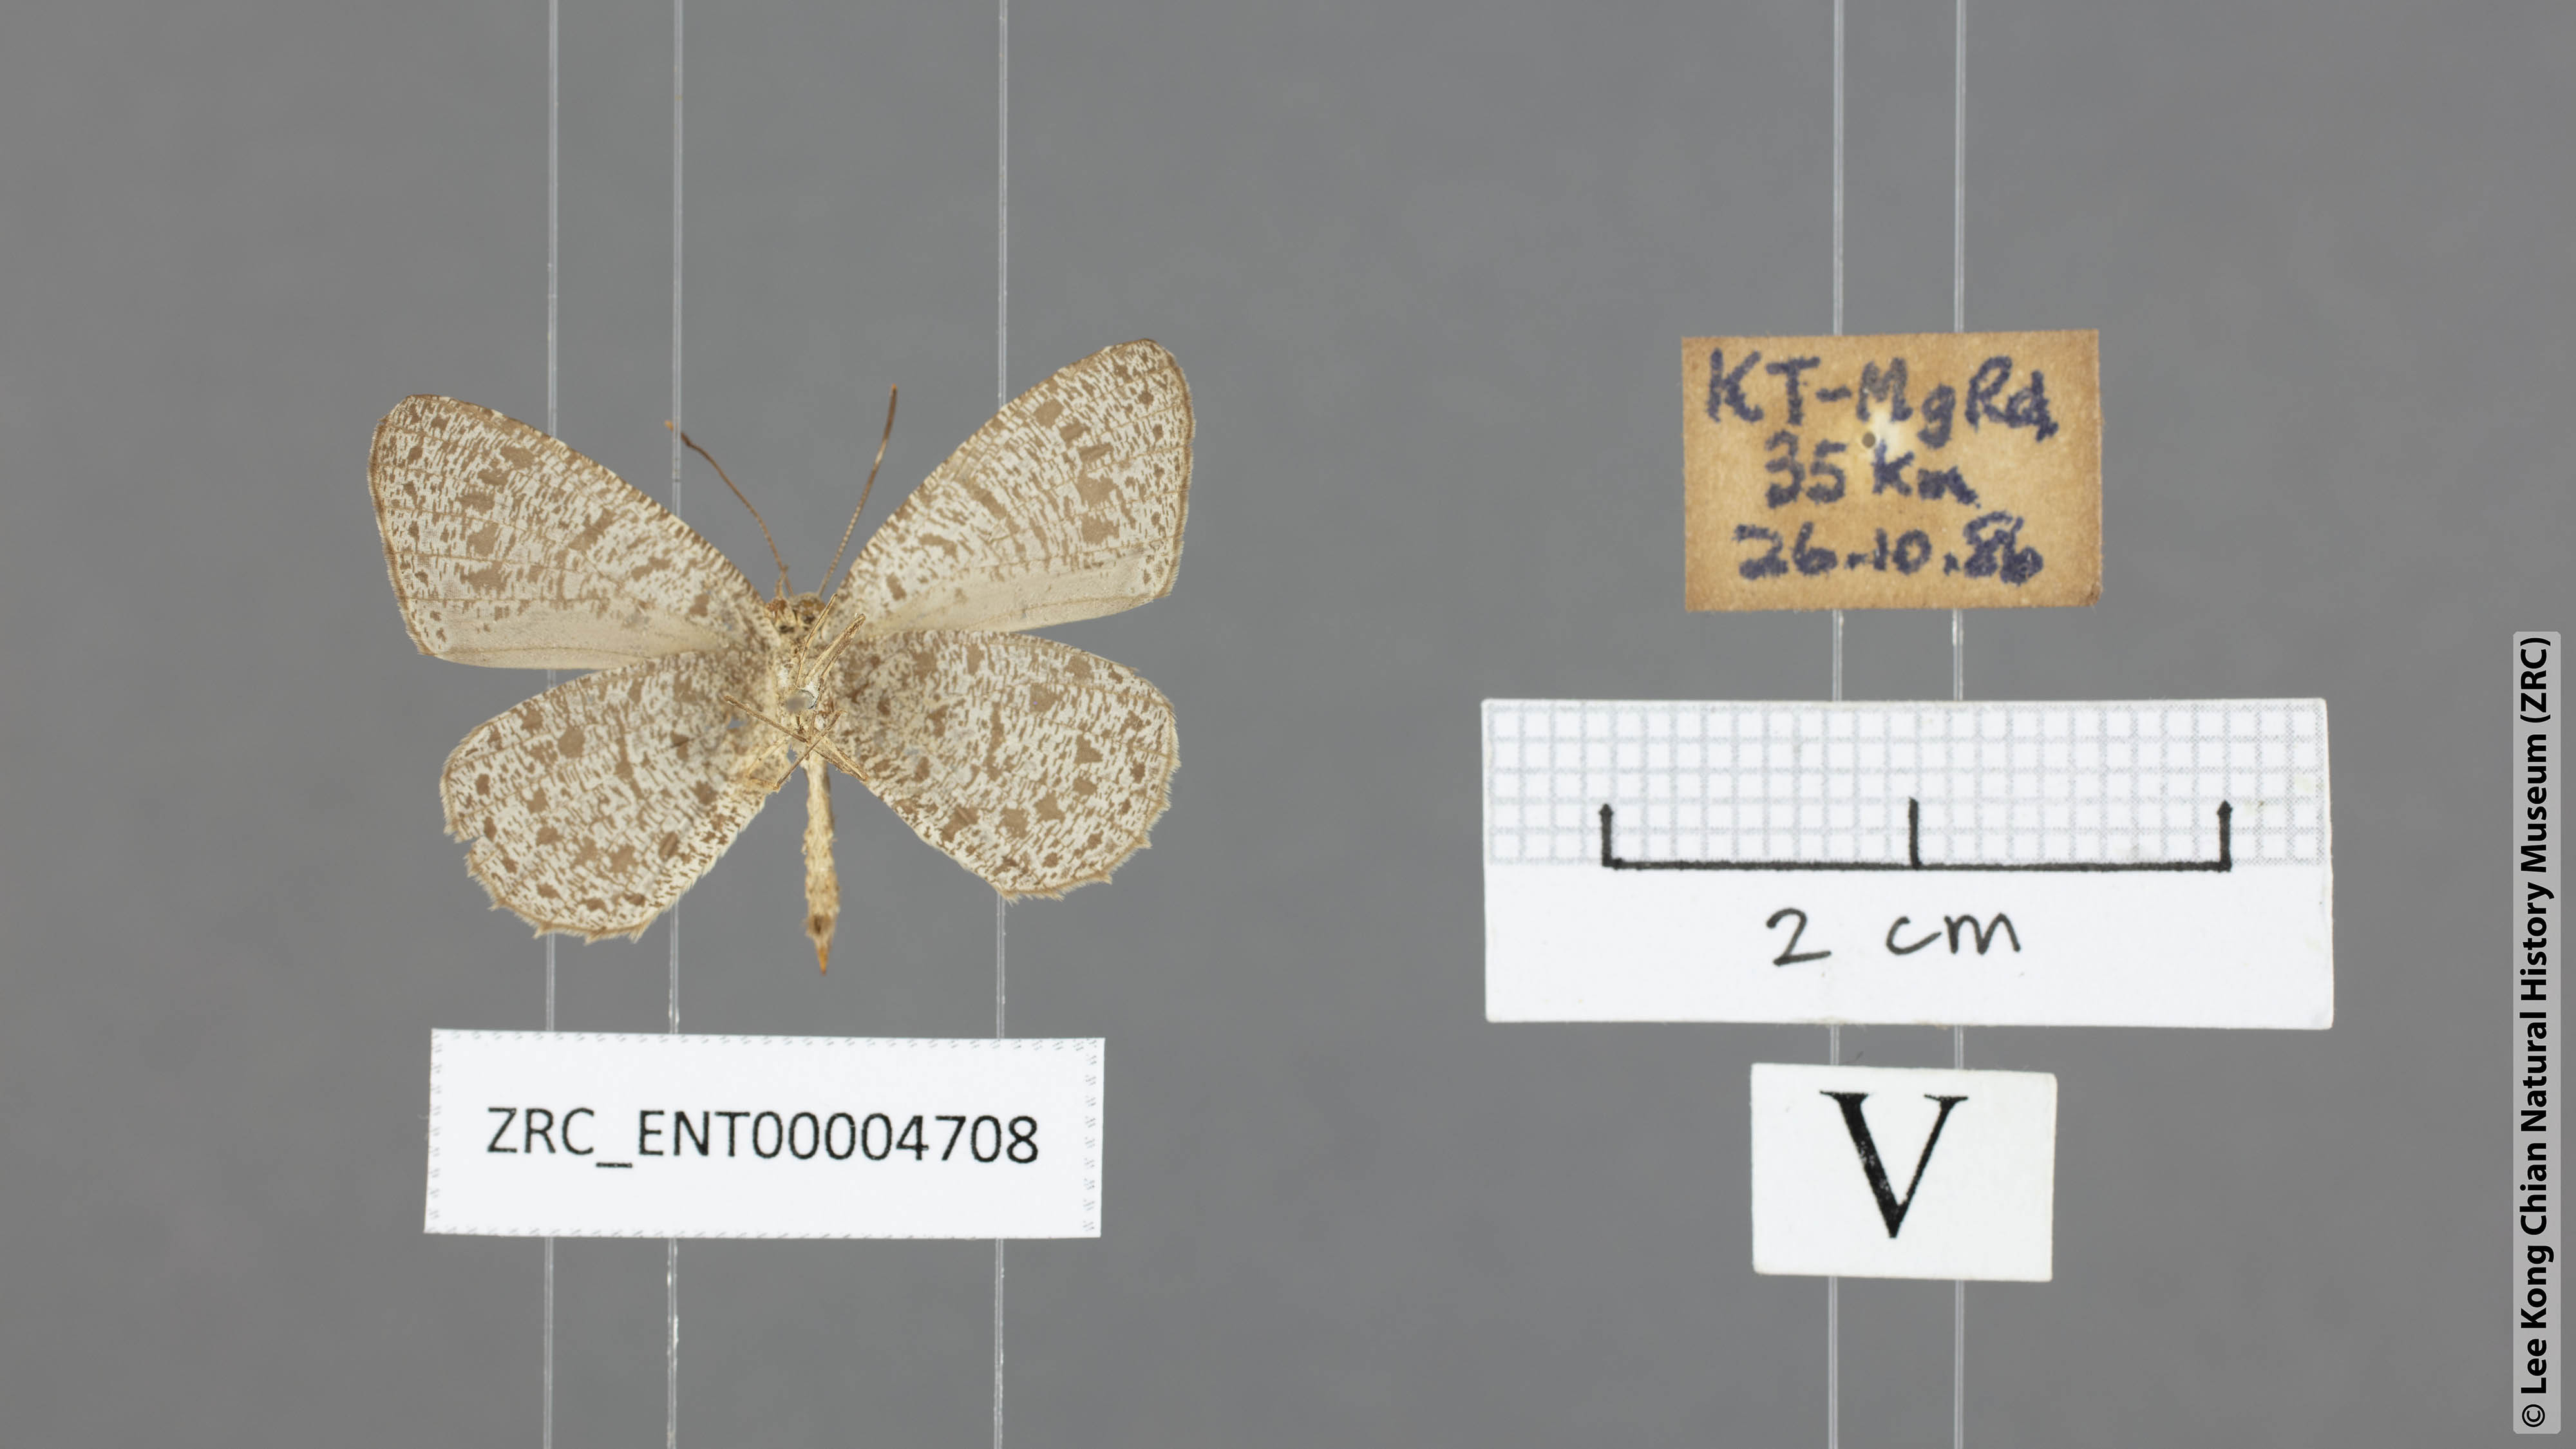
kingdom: Animalia
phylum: Arthropoda
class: Insecta
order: Lepidoptera
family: Lycaenidae
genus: Allotinus
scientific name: Allotinus unicolor
